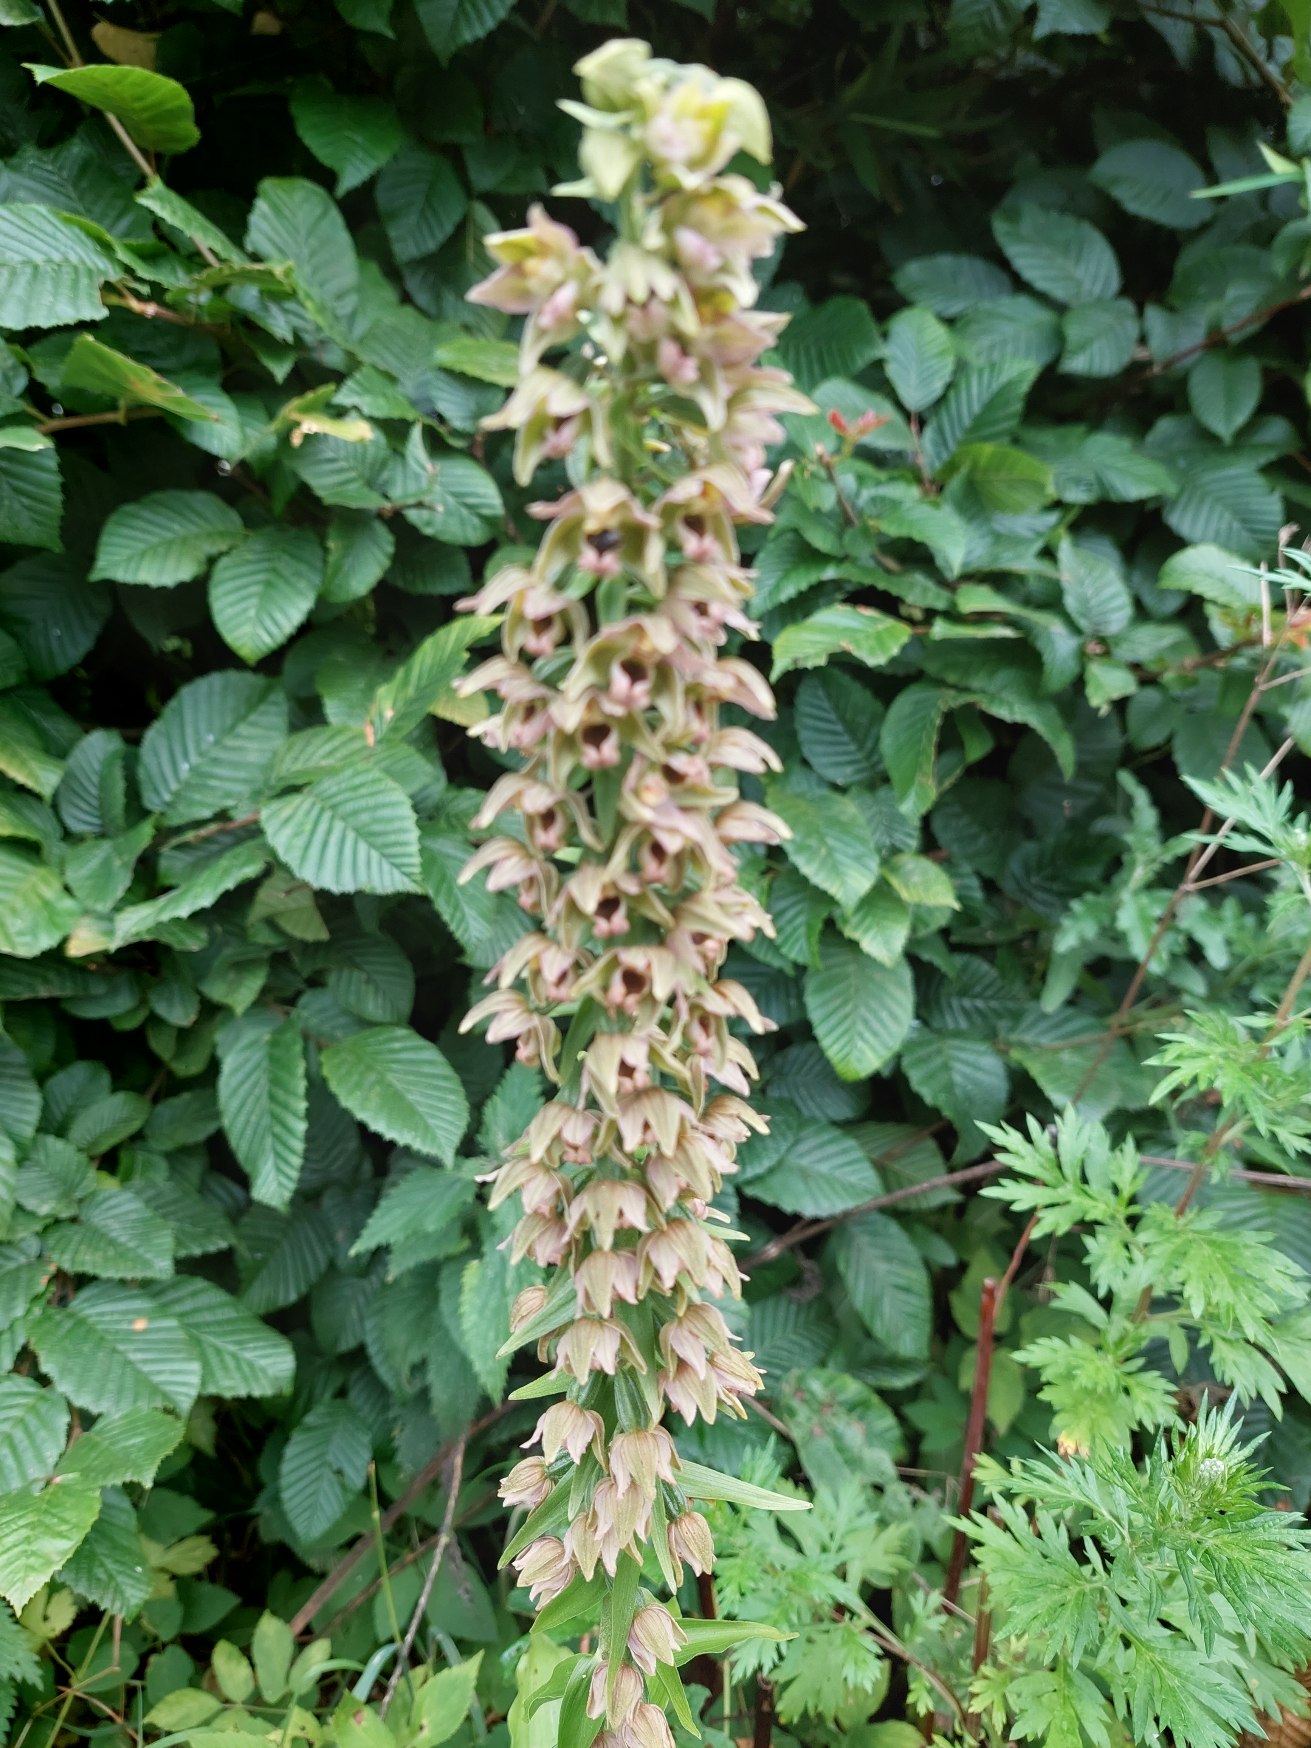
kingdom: Plantae
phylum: Tracheophyta
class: Liliopsida
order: Asparagales
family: Orchidaceae
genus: Epipactis
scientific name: Epipactis helleborine
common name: Skov-hullæbe
